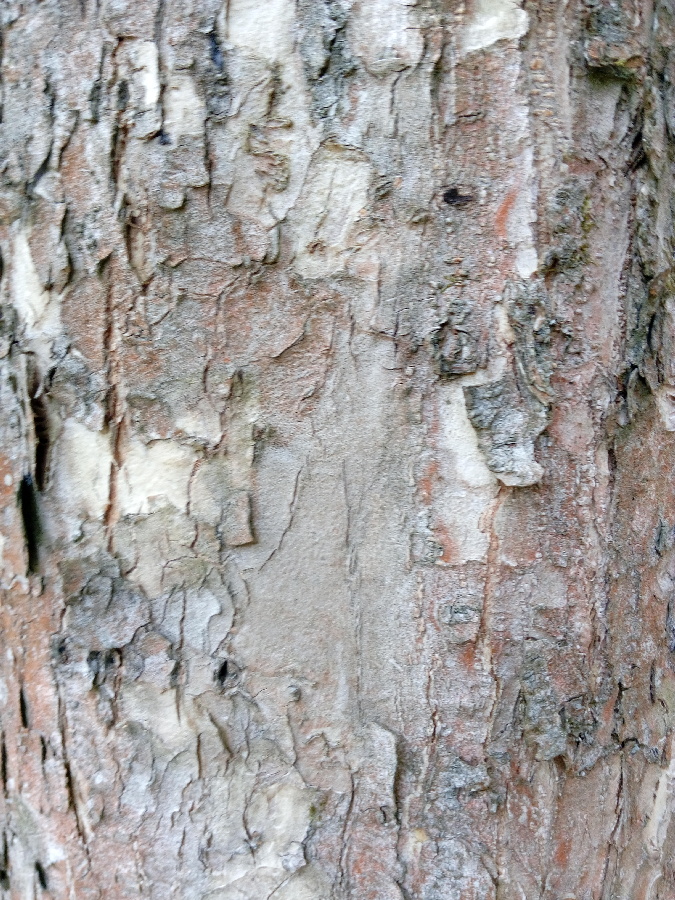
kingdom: Plantae
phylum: Tracheophyta
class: Magnoliopsida
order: Rosales
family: Ulmaceae
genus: Ulmus
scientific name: Ulmus laevis
